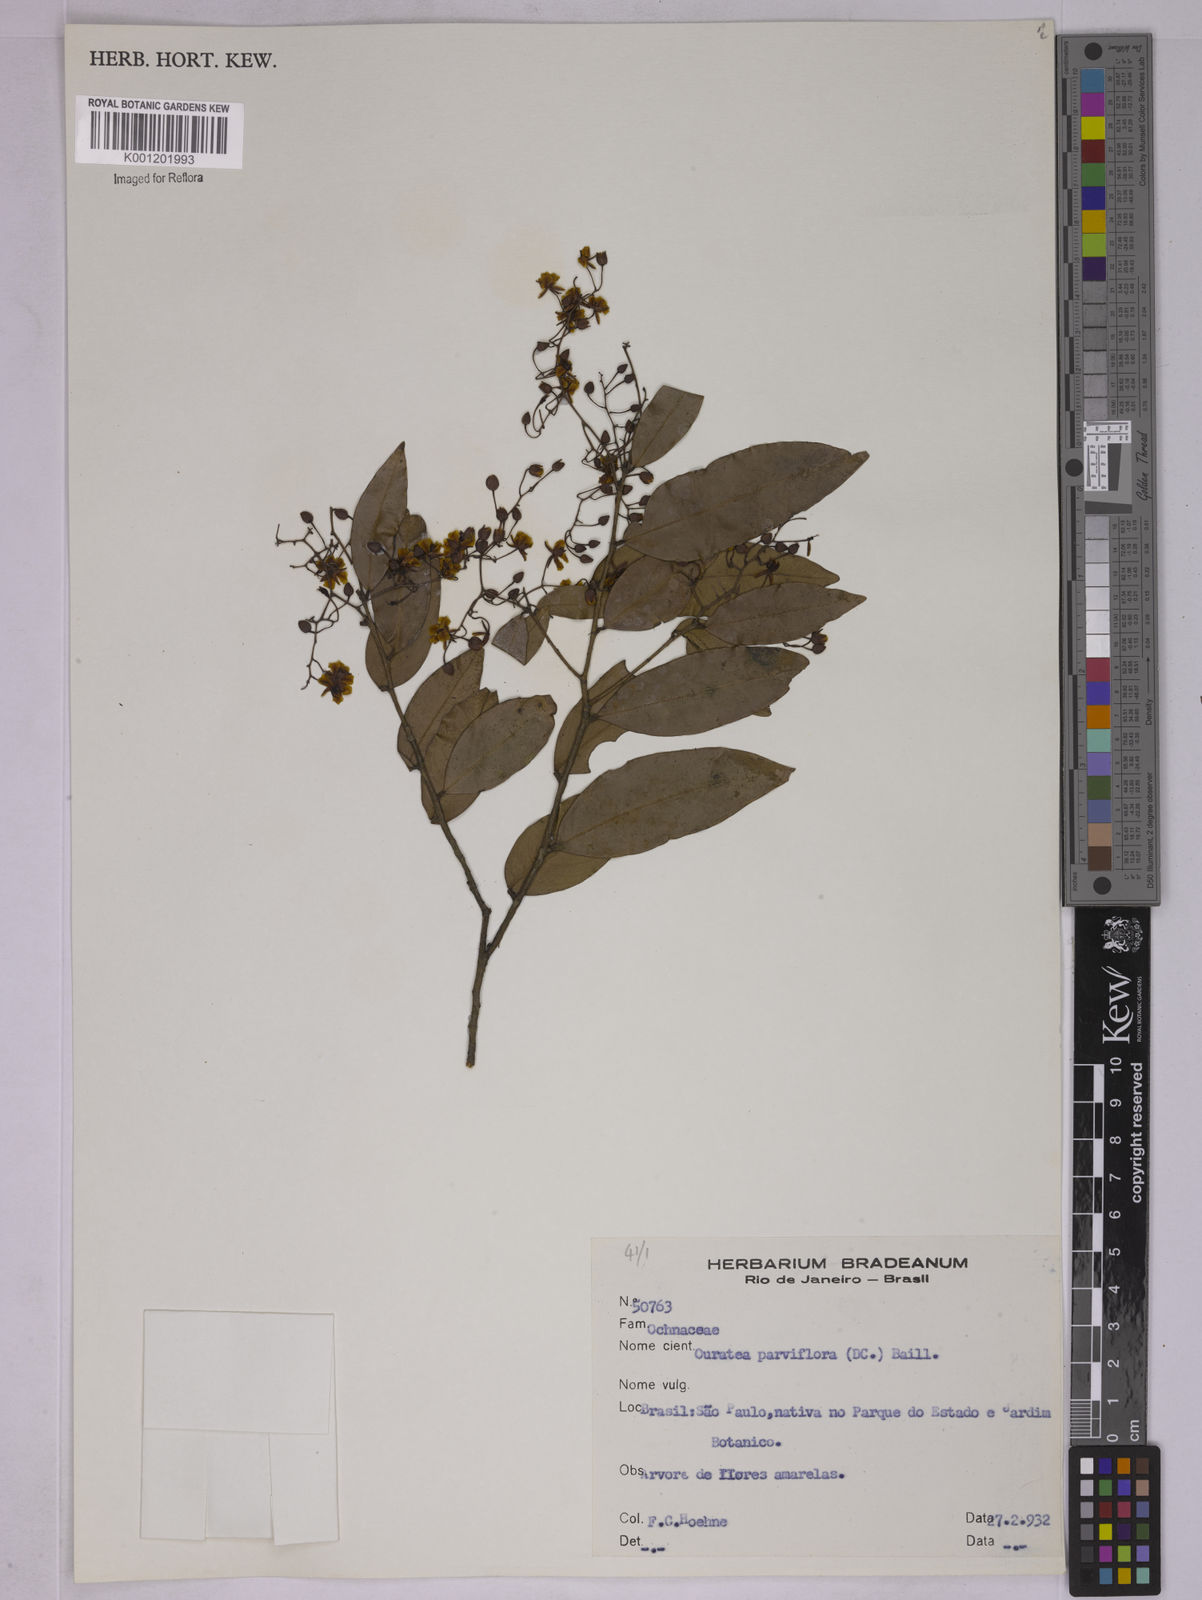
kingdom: Plantae
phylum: Tracheophyta
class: Magnoliopsida
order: Malpighiales
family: Ochnaceae
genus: Ouratea
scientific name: Ouratea parviflora
